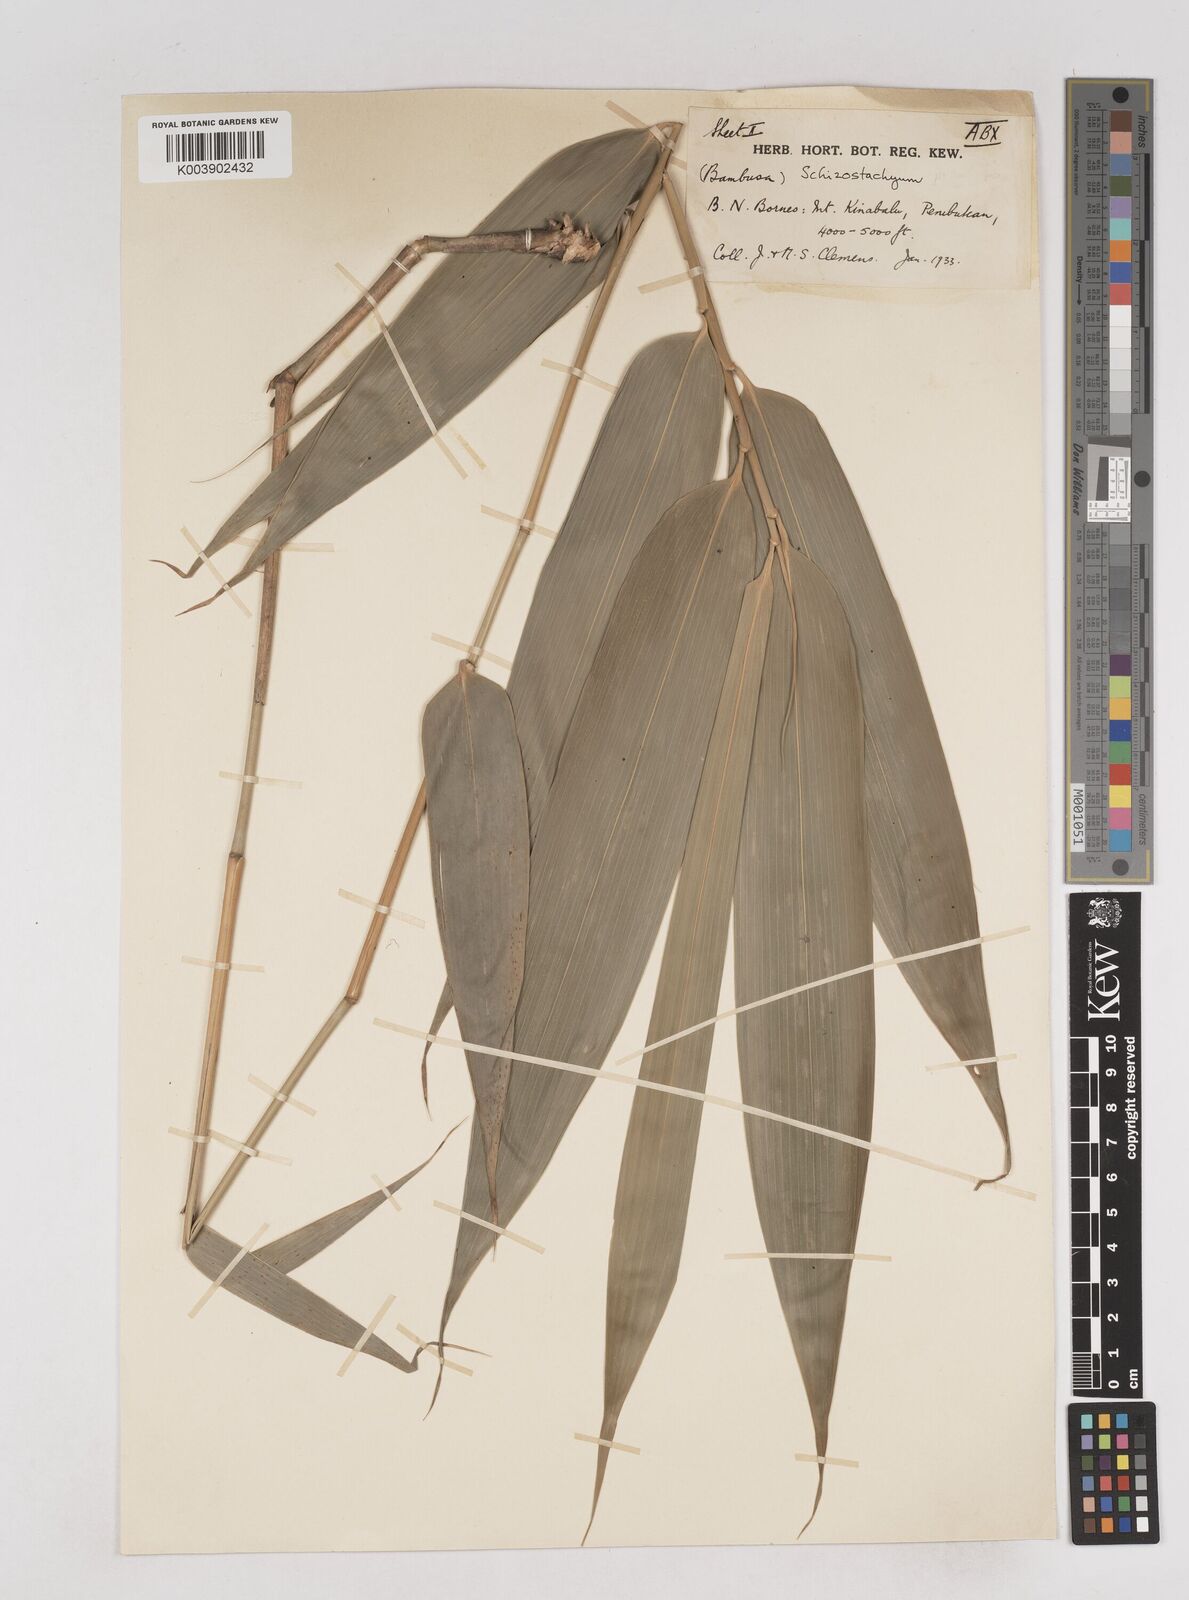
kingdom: Plantae
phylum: Tracheophyta
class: Liliopsida
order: Poales
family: Poaceae
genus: Schizostachyum
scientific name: Schizostachyum
